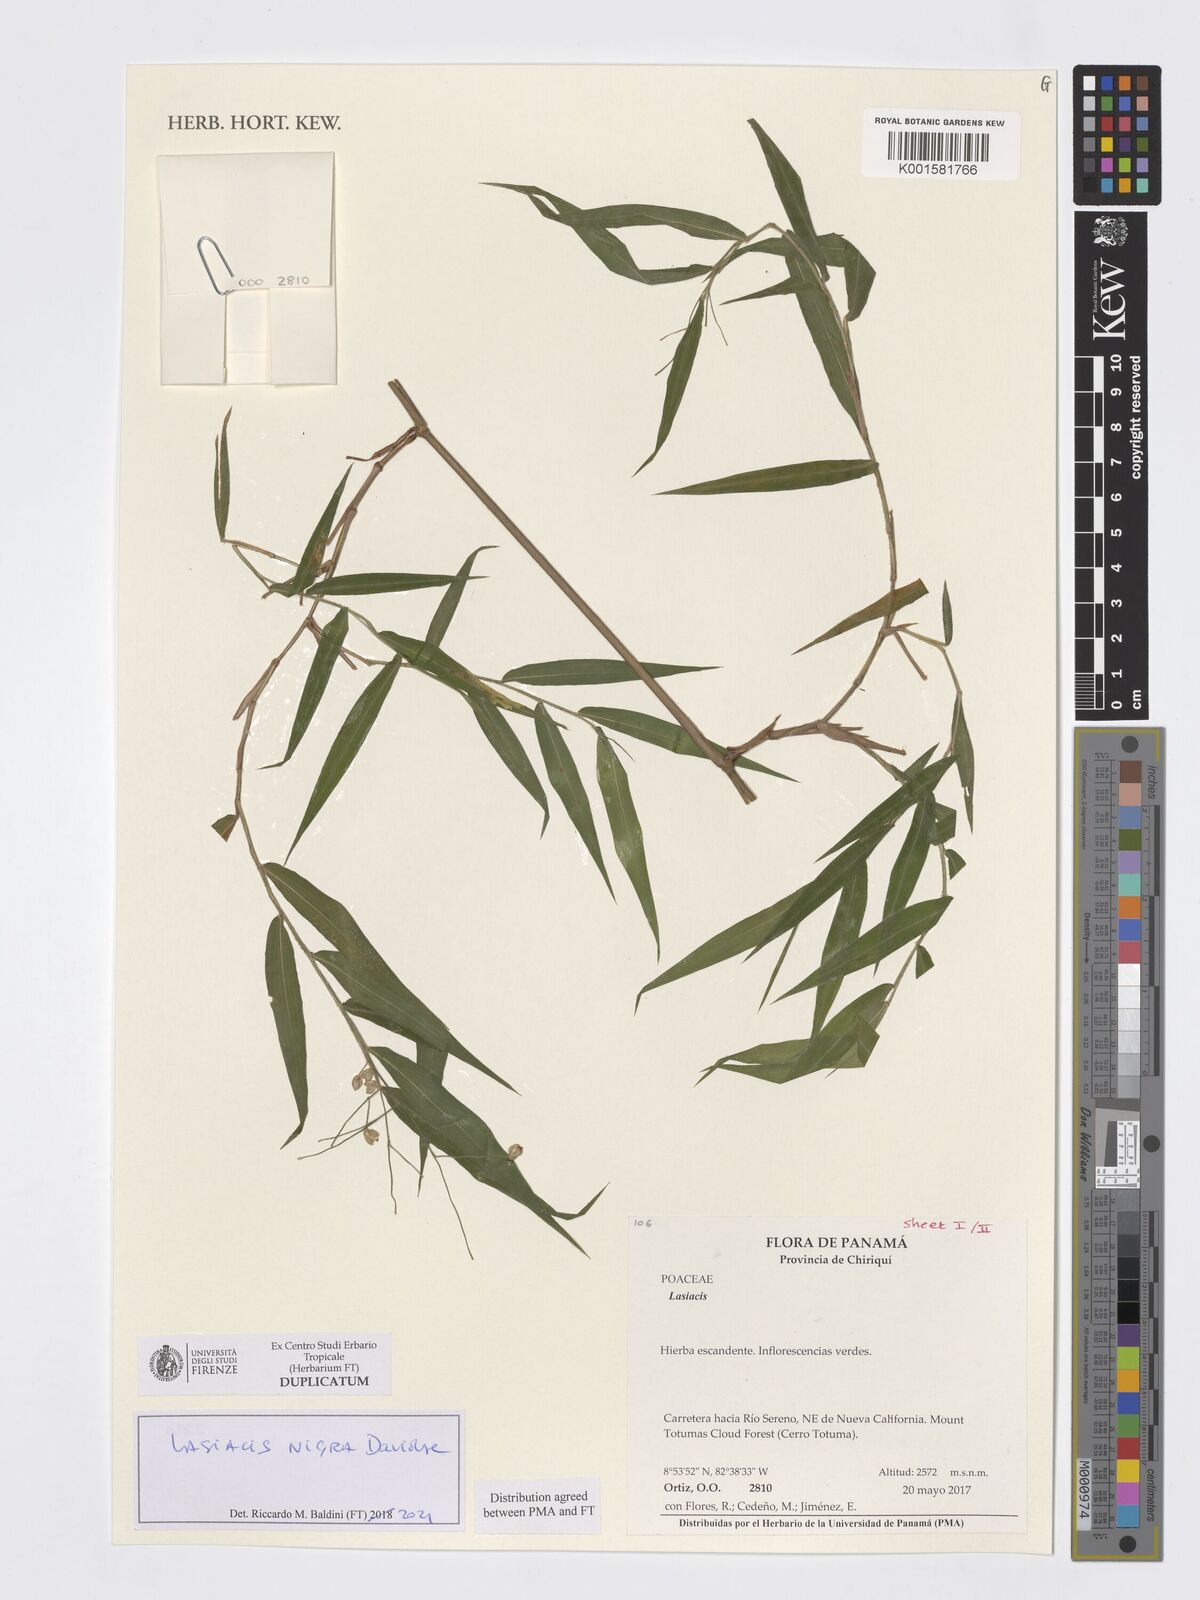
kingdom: Plantae
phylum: Tracheophyta
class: Liliopsida
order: Poales
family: Poaceae
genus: Lasiacis
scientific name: Lasiacis nigra
